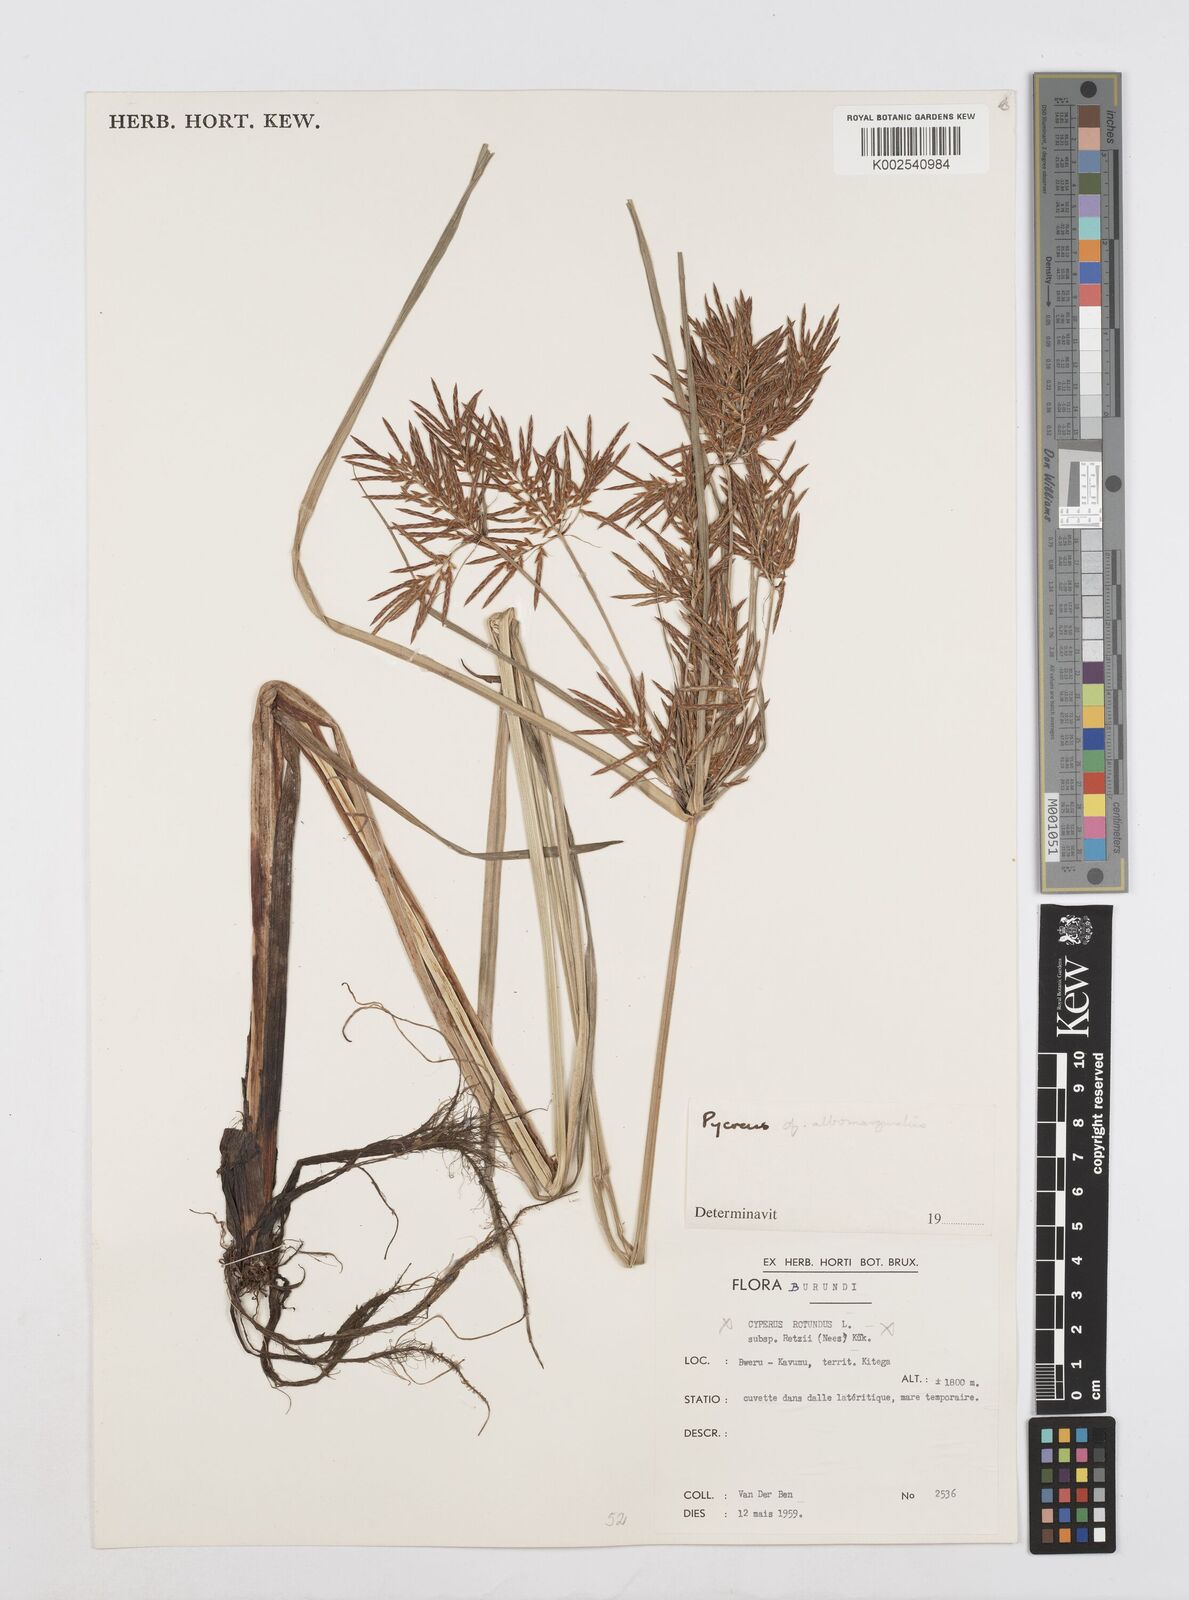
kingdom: Plantae
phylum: Tracheophyta
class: Liliopsida
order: Poales
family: Cyperaceae
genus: Cyperus
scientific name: Cyperus macrostachyos
